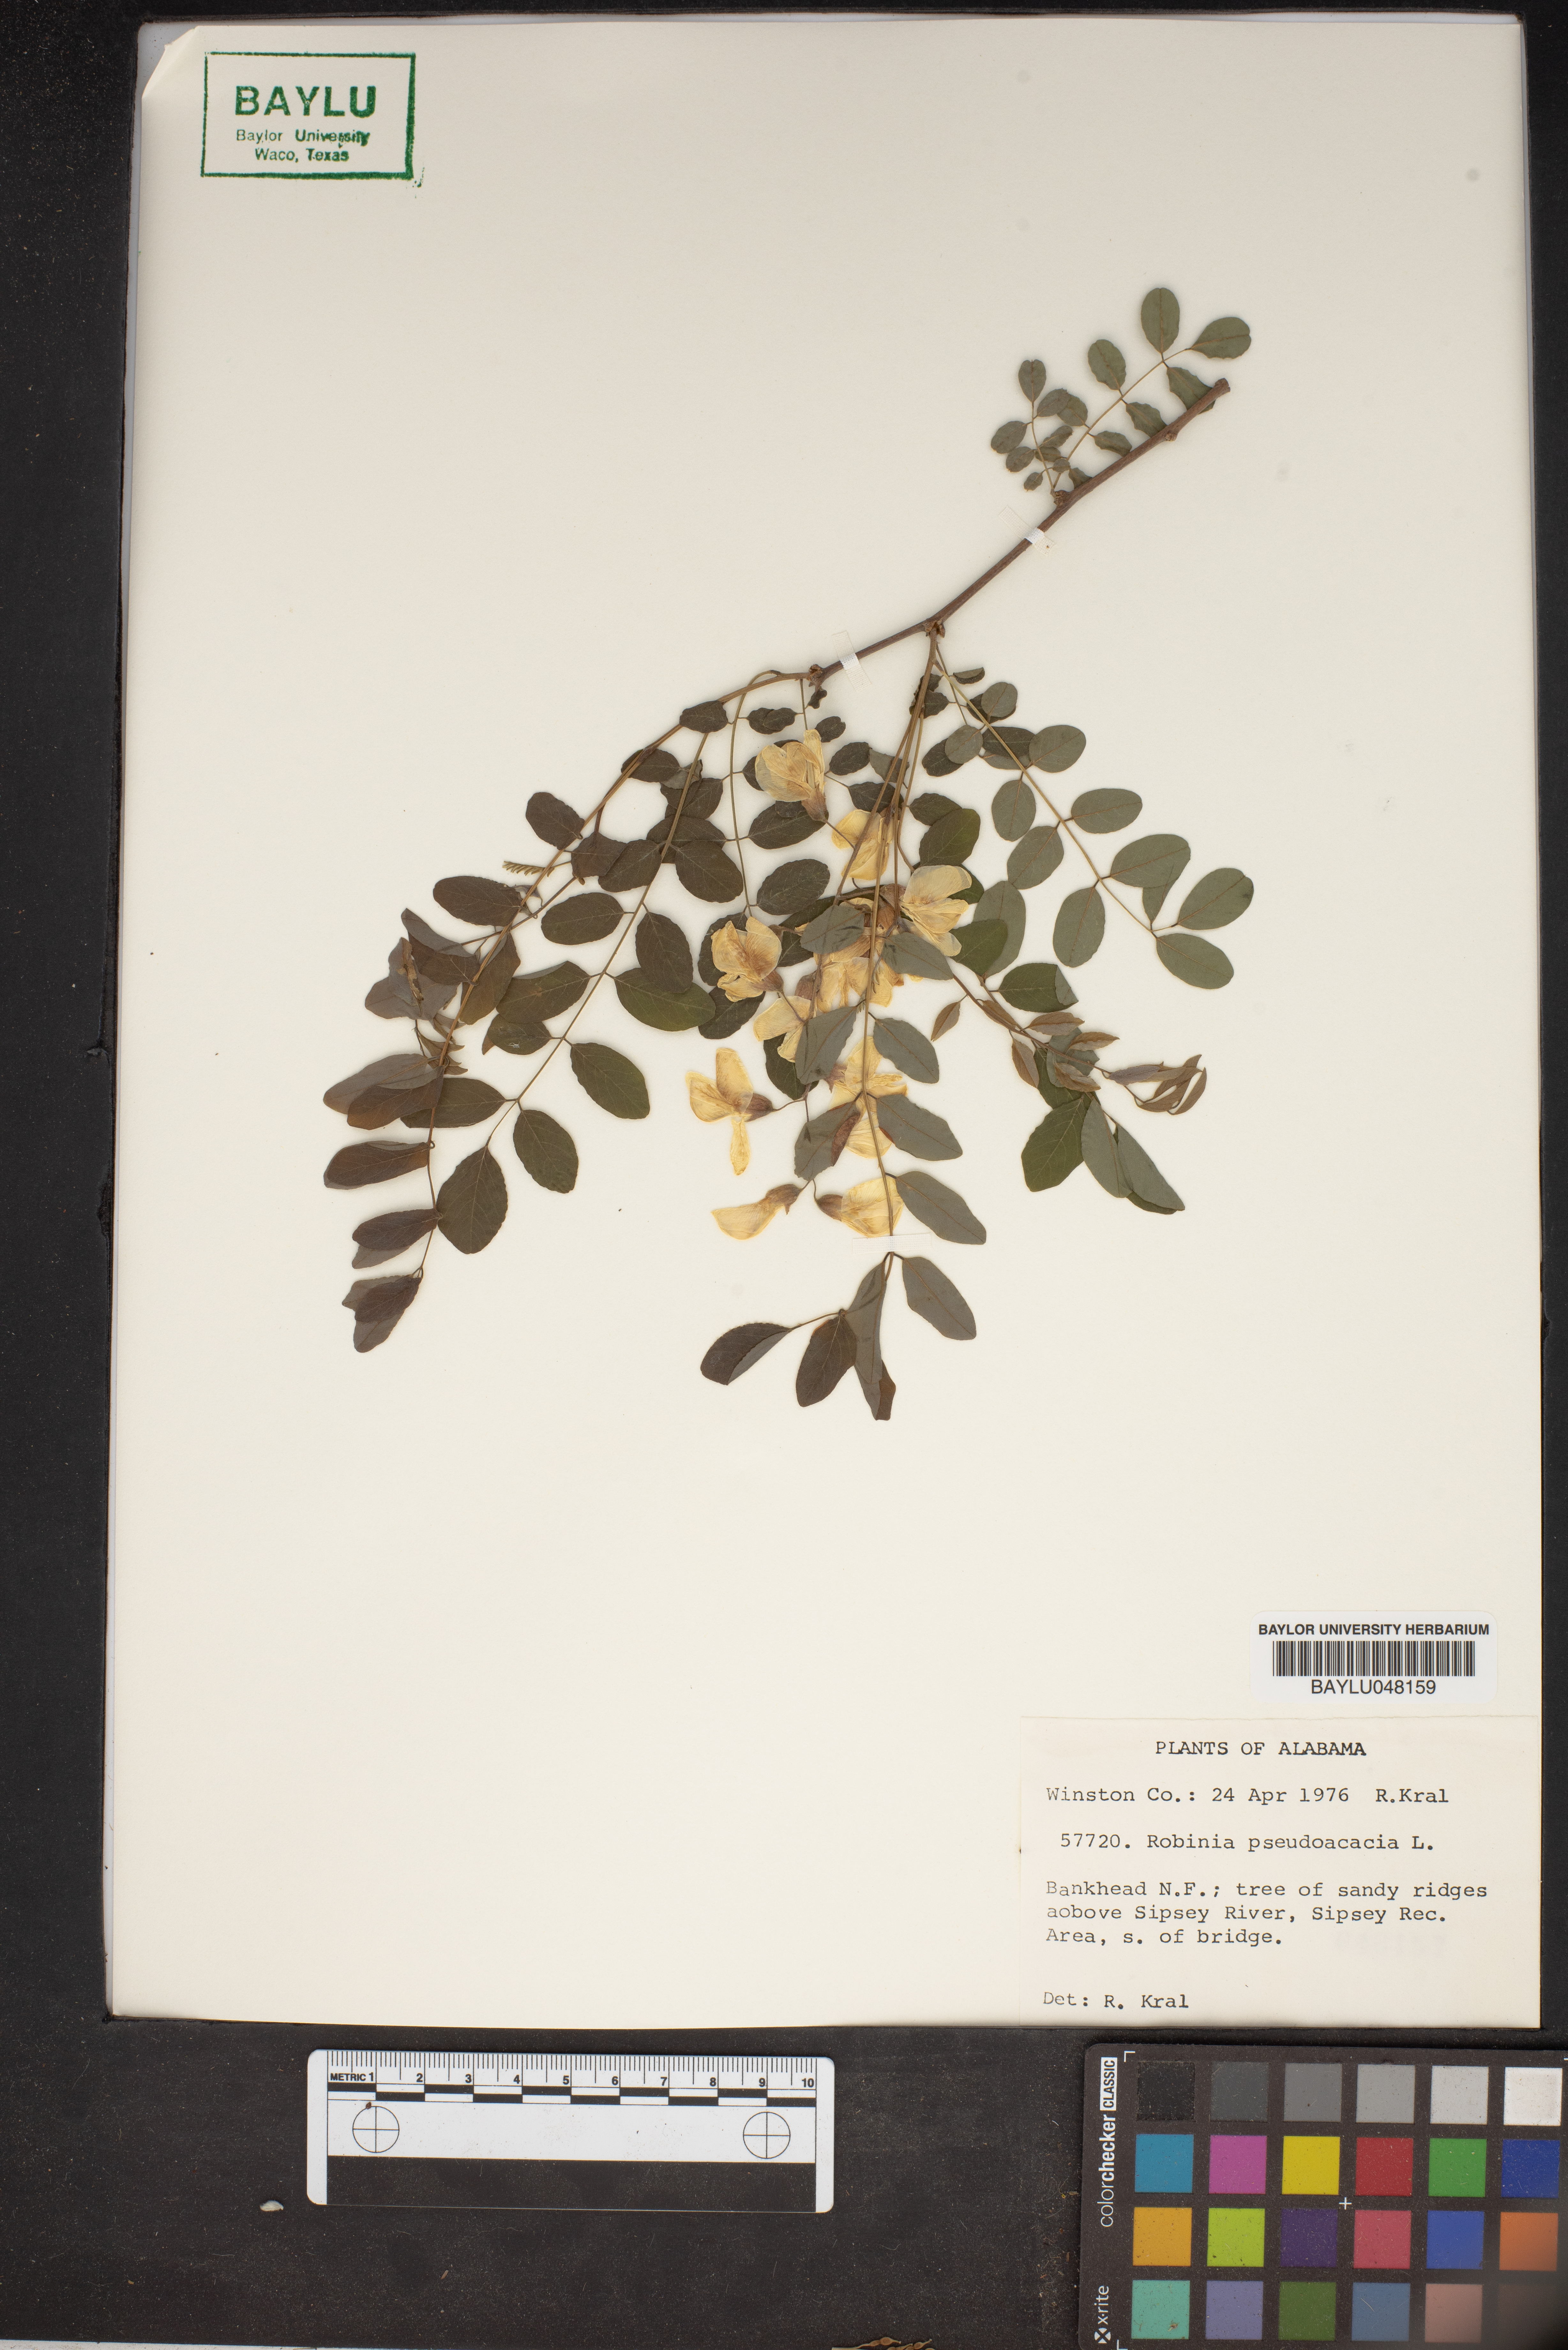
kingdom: Plantae
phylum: Tracheophyta
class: Magnoliopsida
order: Fabales
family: Fabaceae
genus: Robinia
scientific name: Robinia pseudoacacia
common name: Black locust
